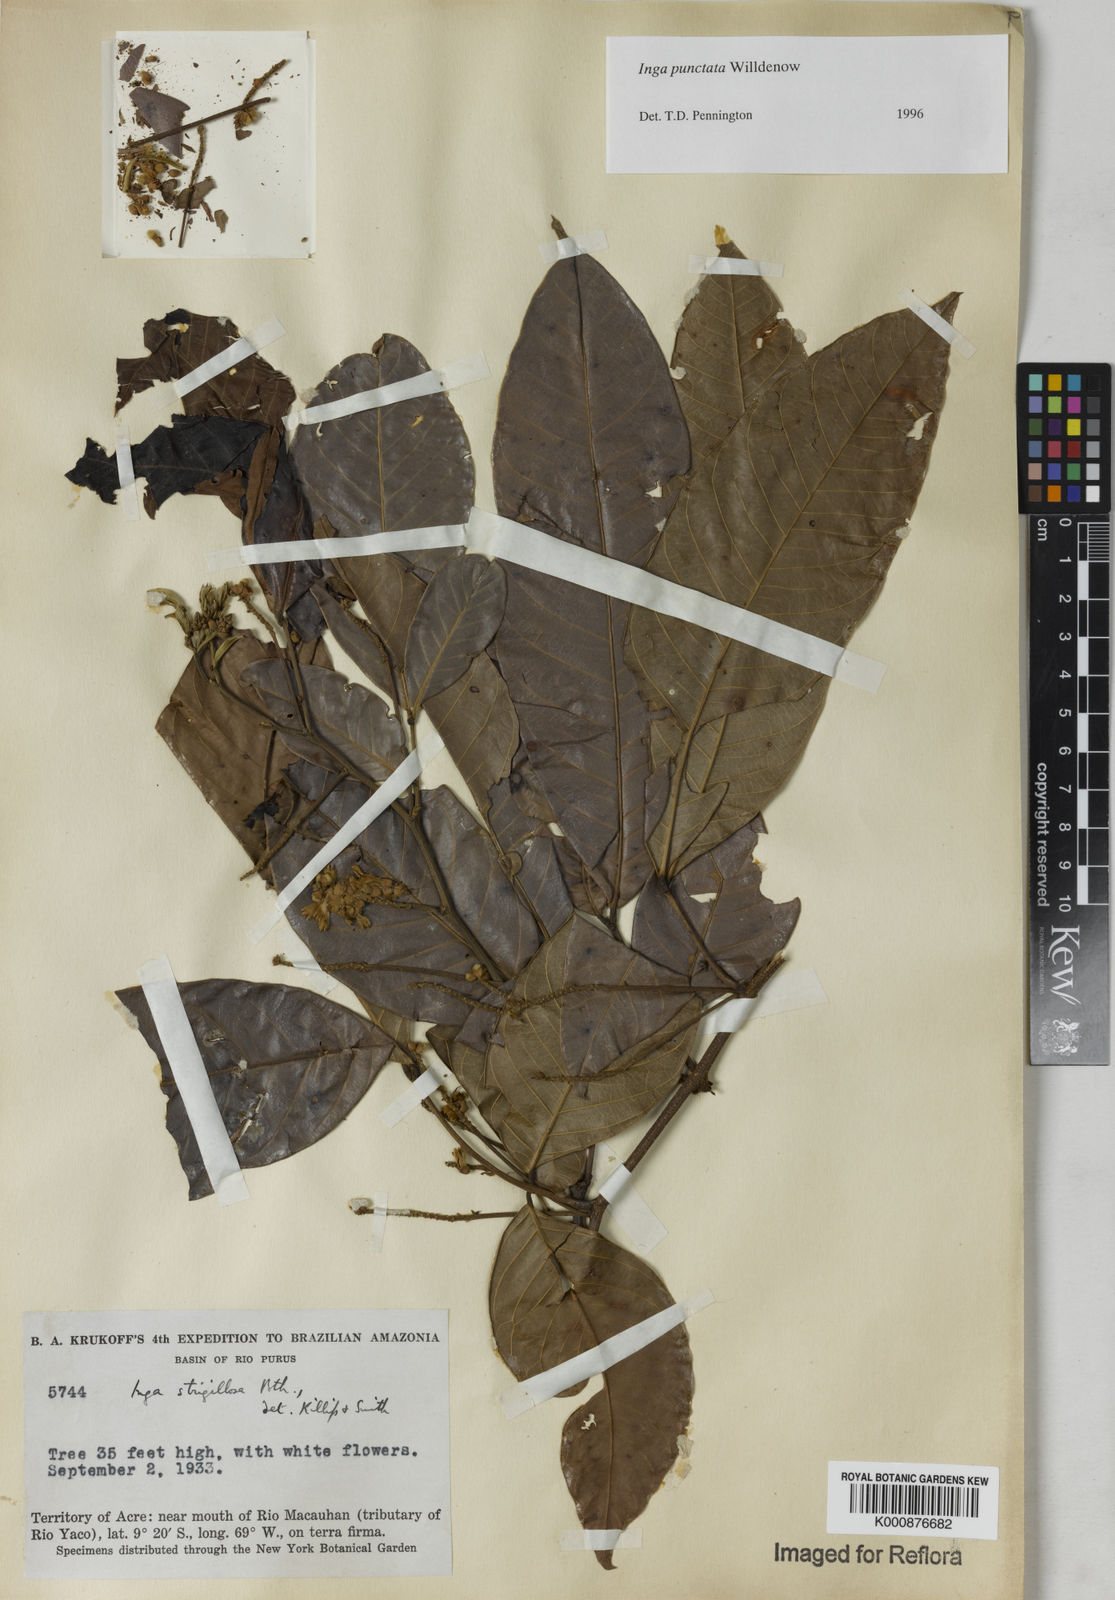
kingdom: Plantae
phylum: Tracheophyta
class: Magnoliopsida
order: Fabales
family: Fabaceae
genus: Inga
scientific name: Inga punctata
